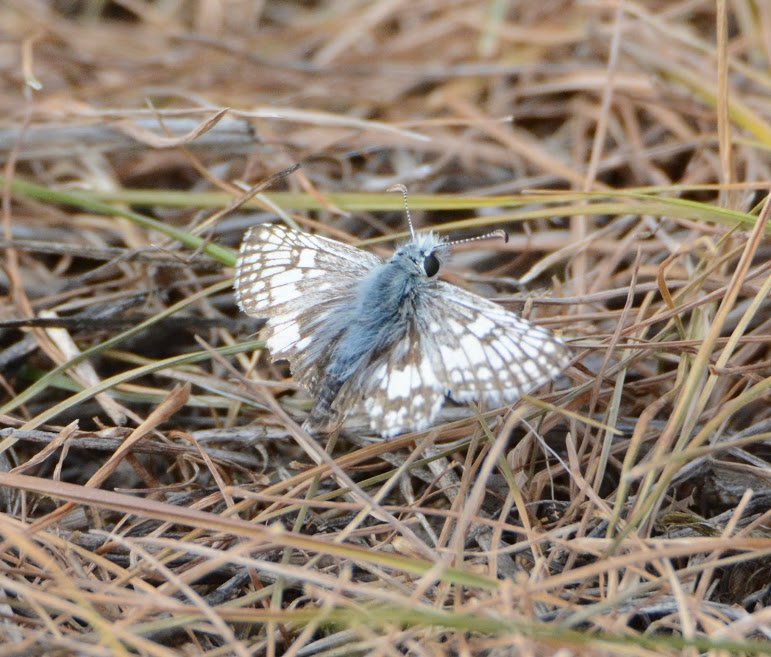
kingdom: Animalia
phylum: Arthropoda
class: Insecta
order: Lepidoptera
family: Hesperiidae
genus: Pyrgus
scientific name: Pyrgus communis
